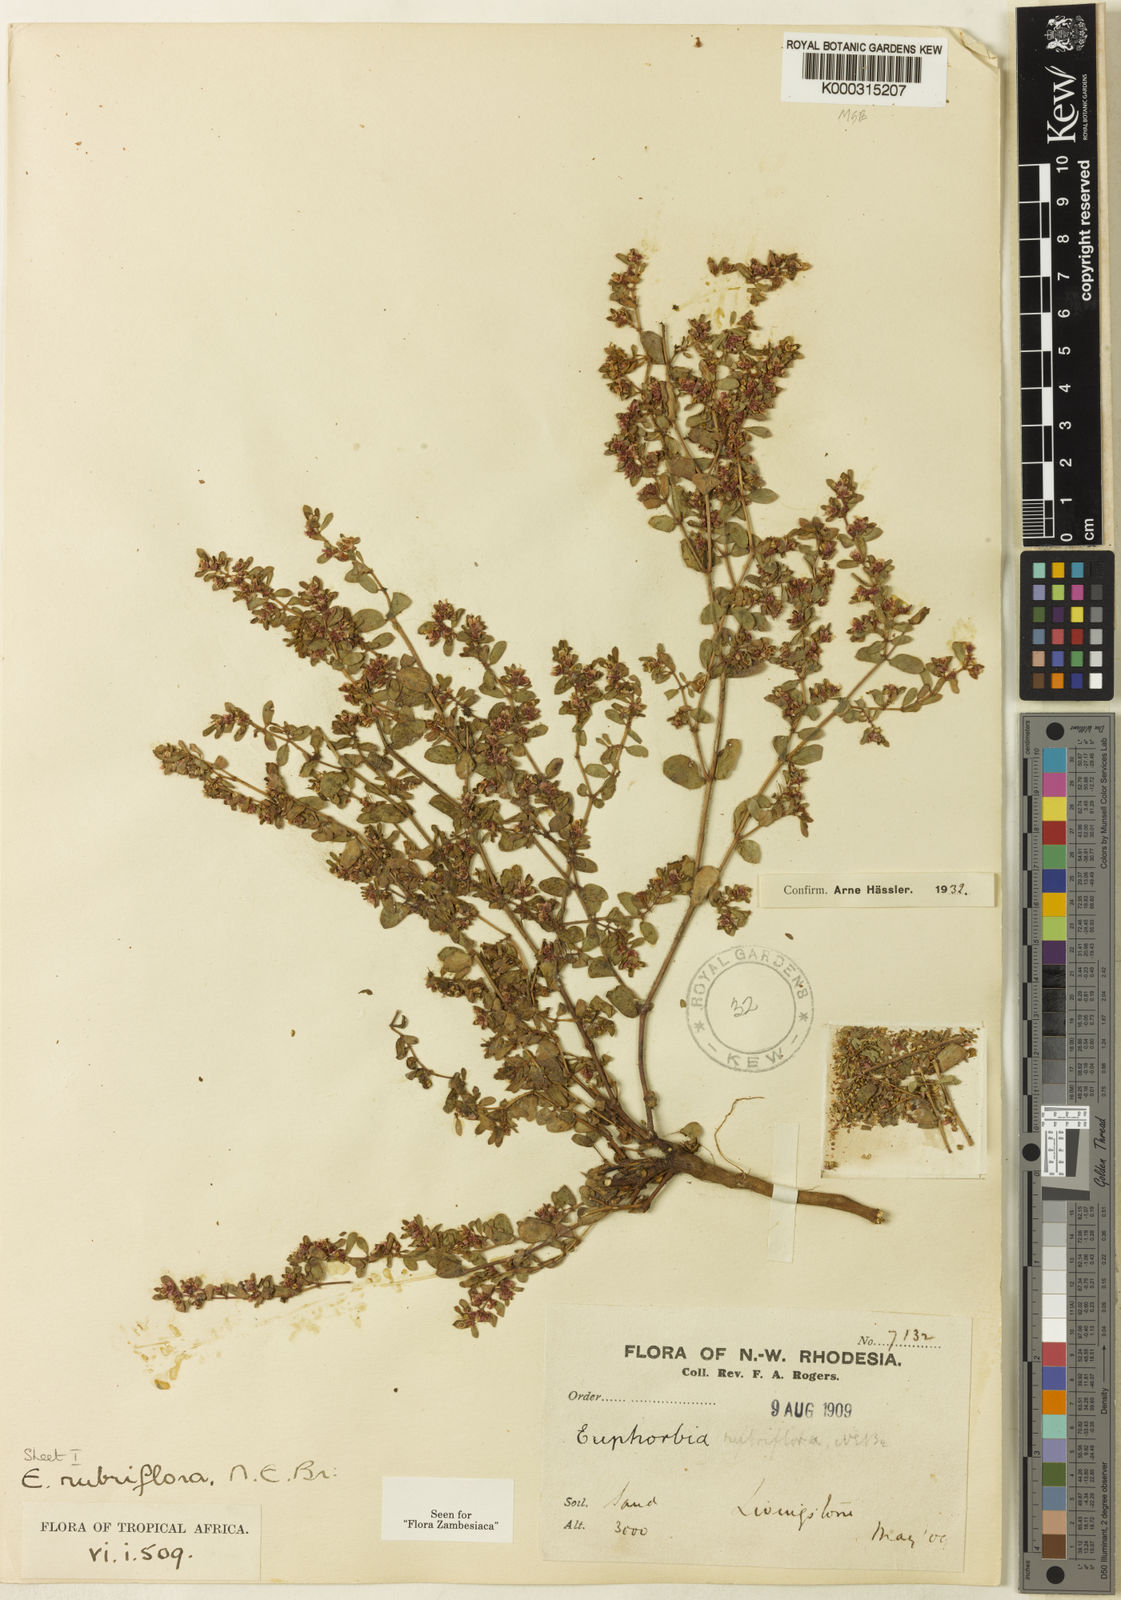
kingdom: Plantae
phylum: Tracheophyta
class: Magnoliopsida
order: Malpighiales
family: Euphorbiaceae
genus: Euphorbia
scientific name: Euphorbia rubriflora
